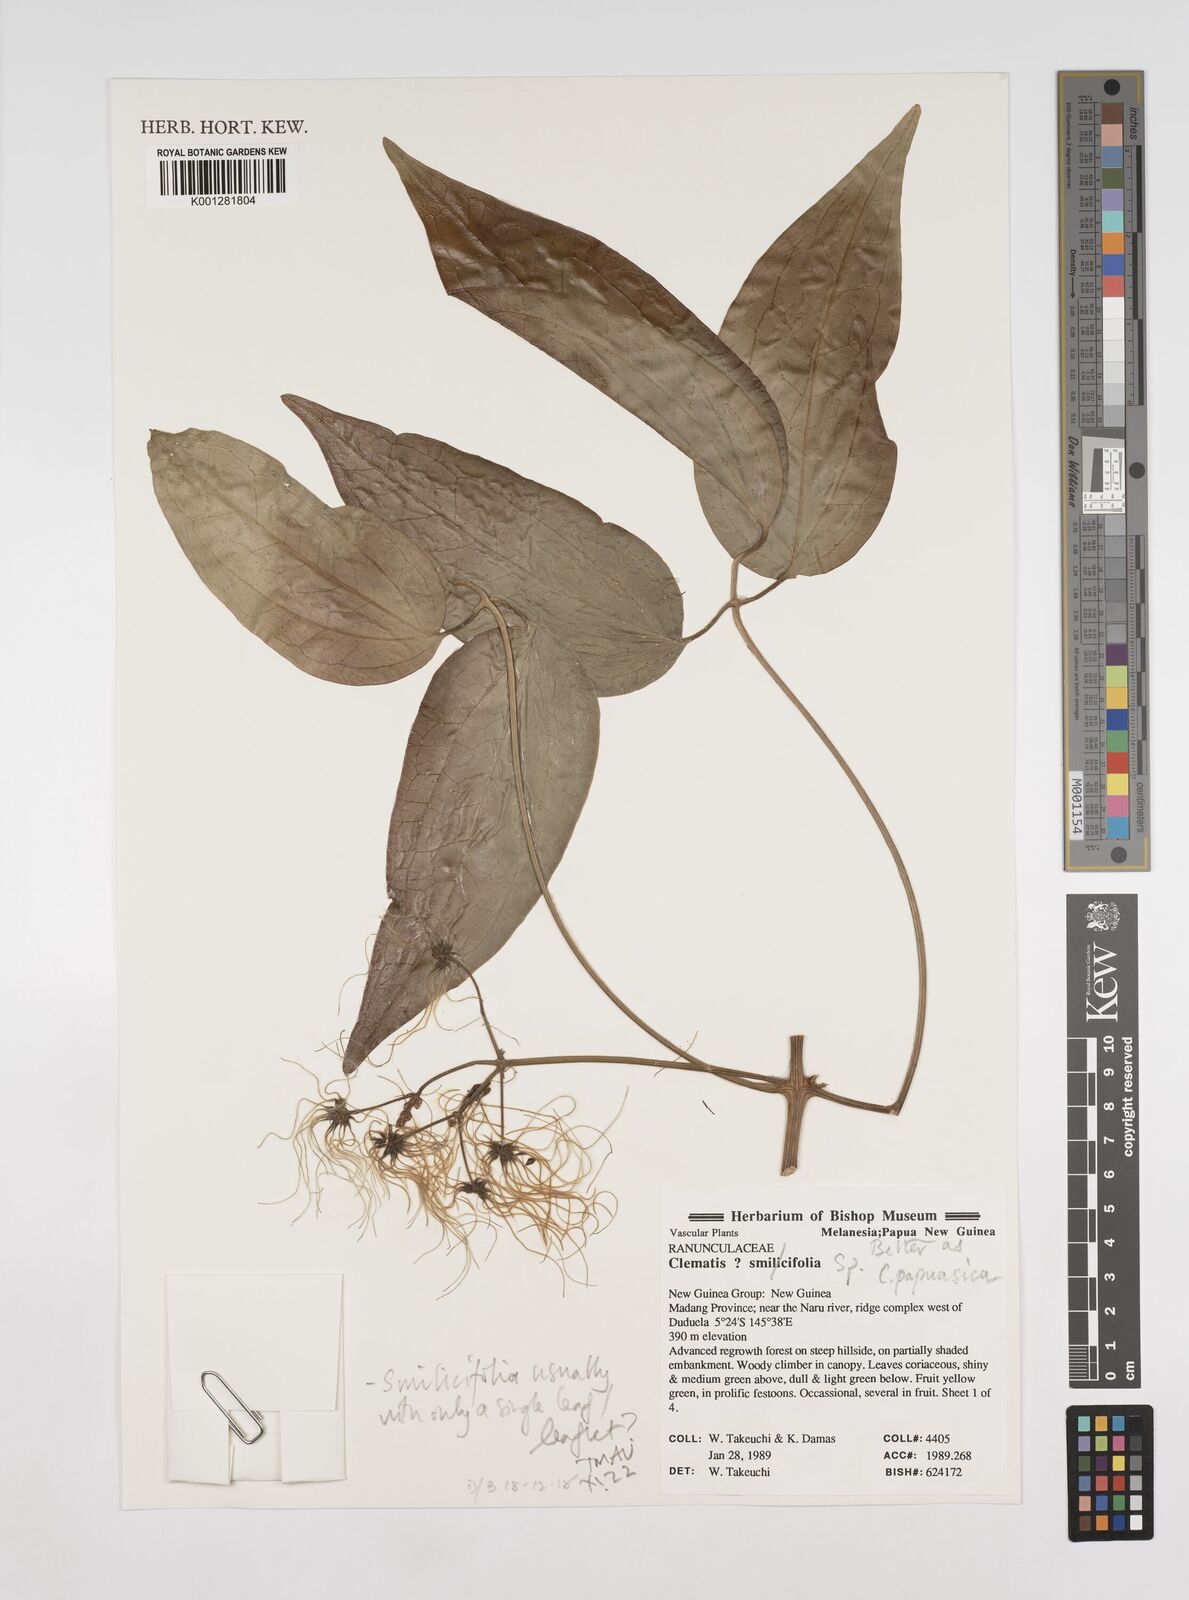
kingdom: Plantae
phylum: Tracheophyta
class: Magnoliopsida
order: Ranunculales
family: Ranunculaceae
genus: Clematis
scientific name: Clematis
